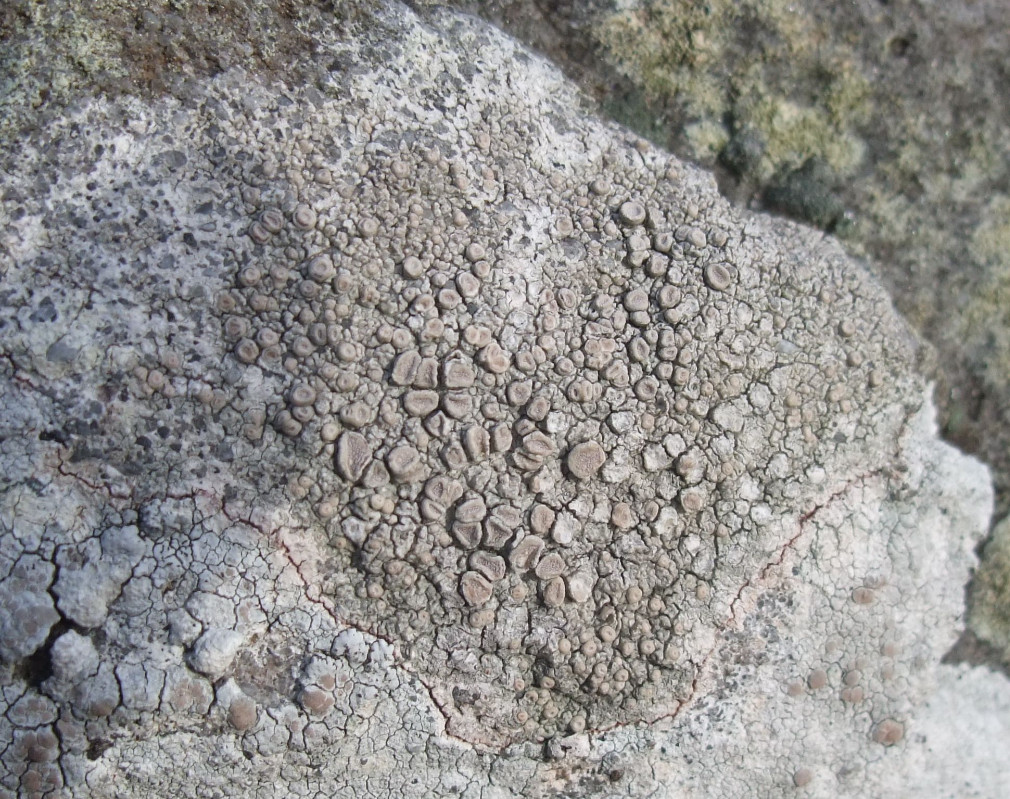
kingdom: Fungi
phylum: Ascomycota
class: Lecanoromycetes
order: Pertusariales
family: Ochrolechiaceae
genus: Ochrolechia
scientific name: Ochrolechia parella
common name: almindelig blegskivelav
